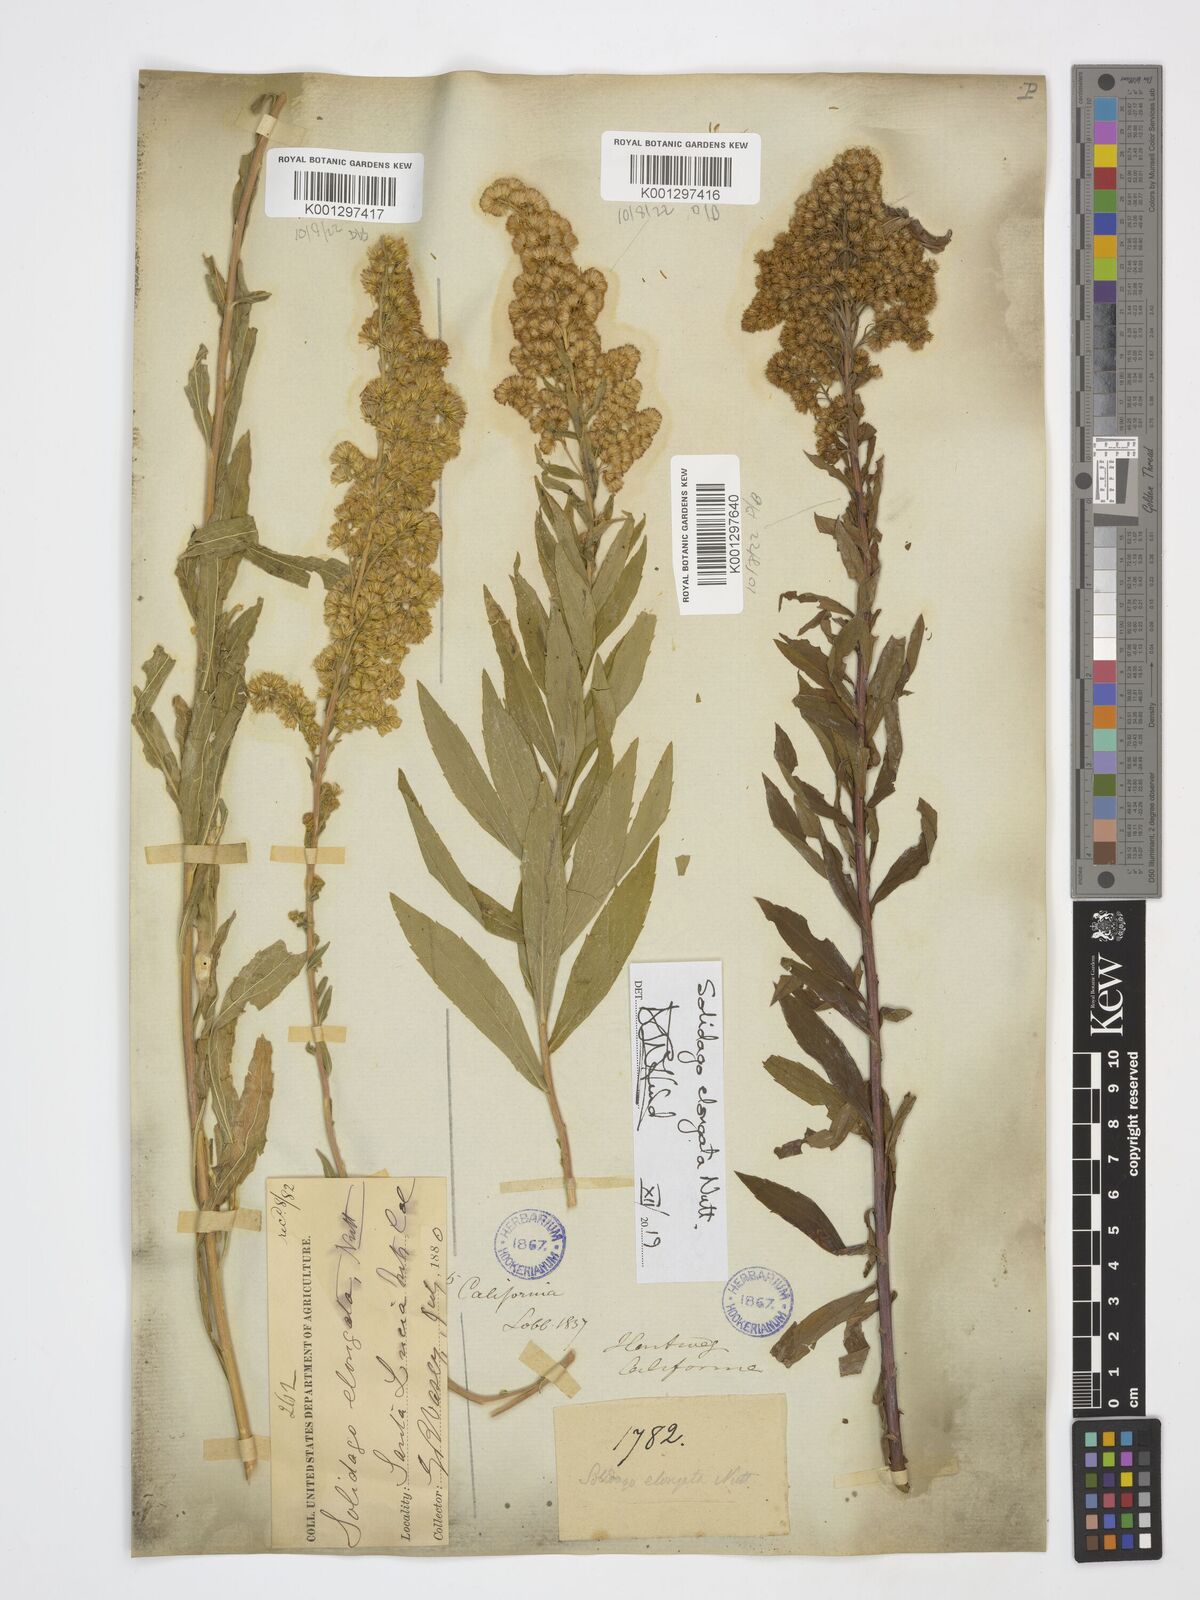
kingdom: Plantae
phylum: Tracheophyta
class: Magnoliopsida
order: Asterales
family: Asteraceae
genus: Solidago
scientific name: Solidago elongata
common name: Cascade canada goldenrod
